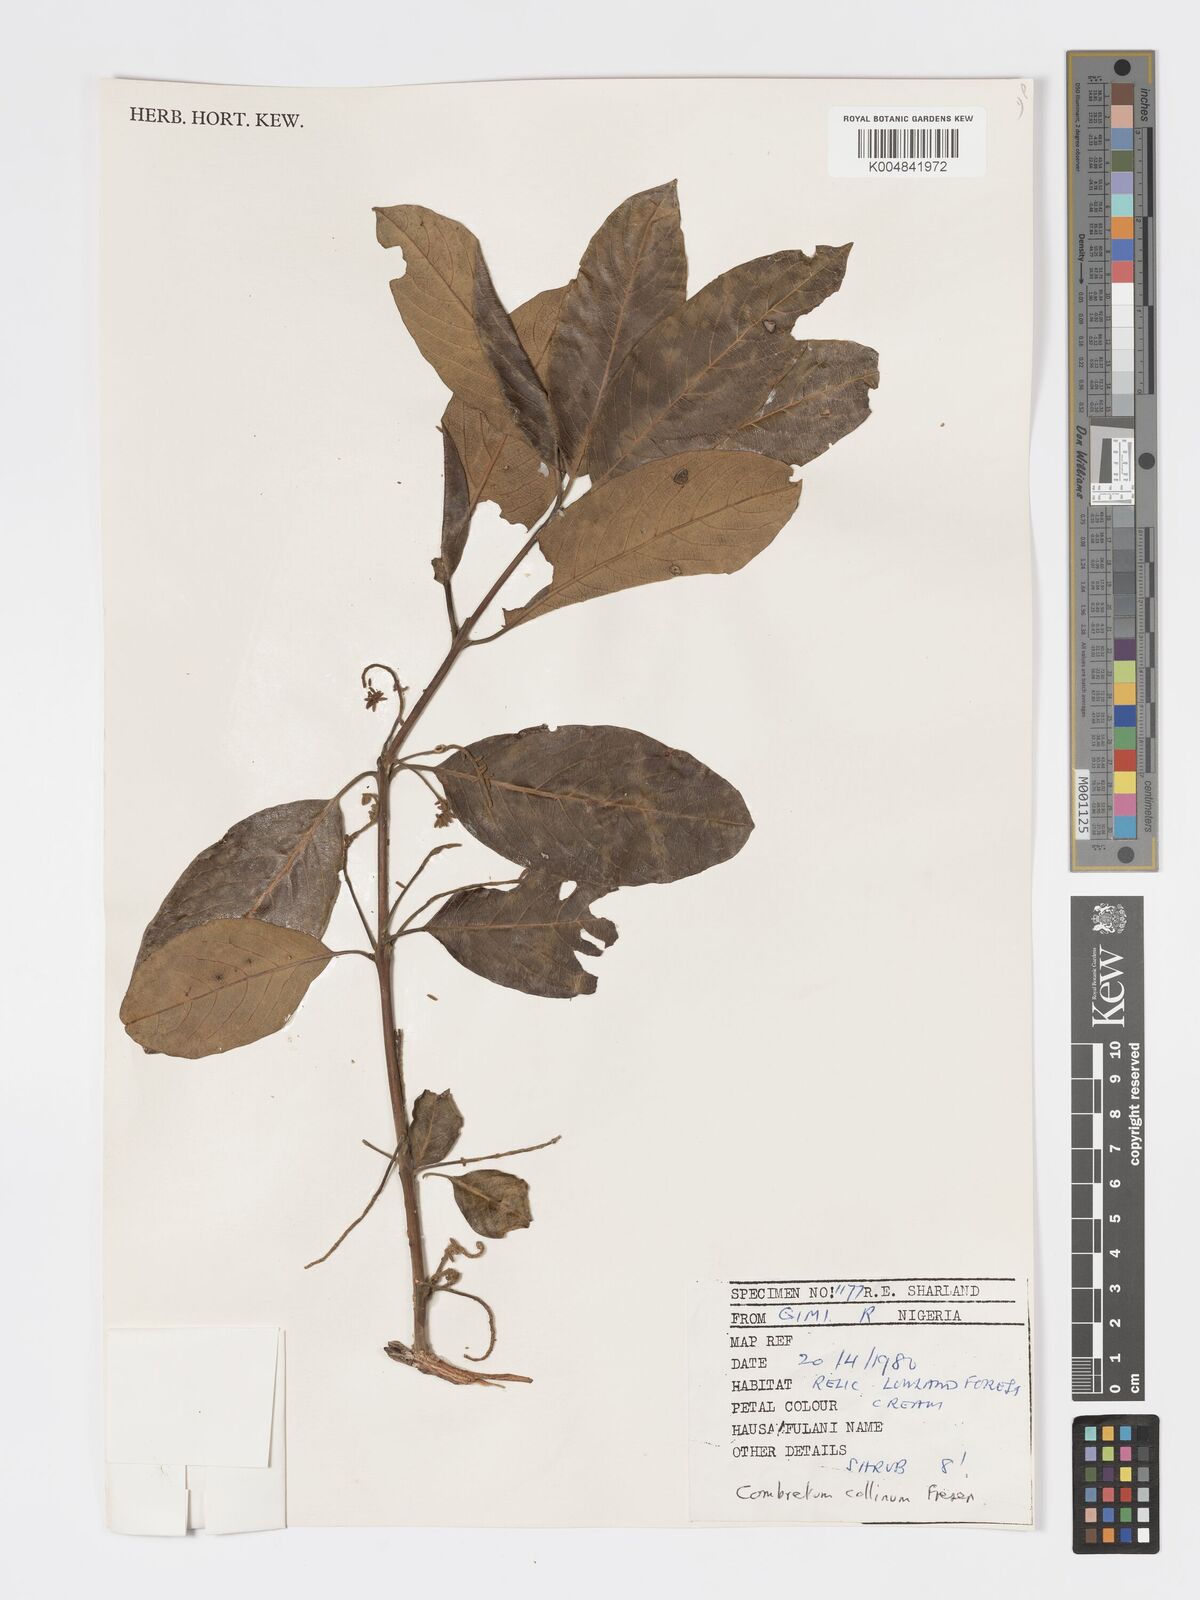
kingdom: Plantae
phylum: Tracheophyta
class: Magnoliopsida
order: Myrtales
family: Combretaceae
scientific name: Combretaceae
